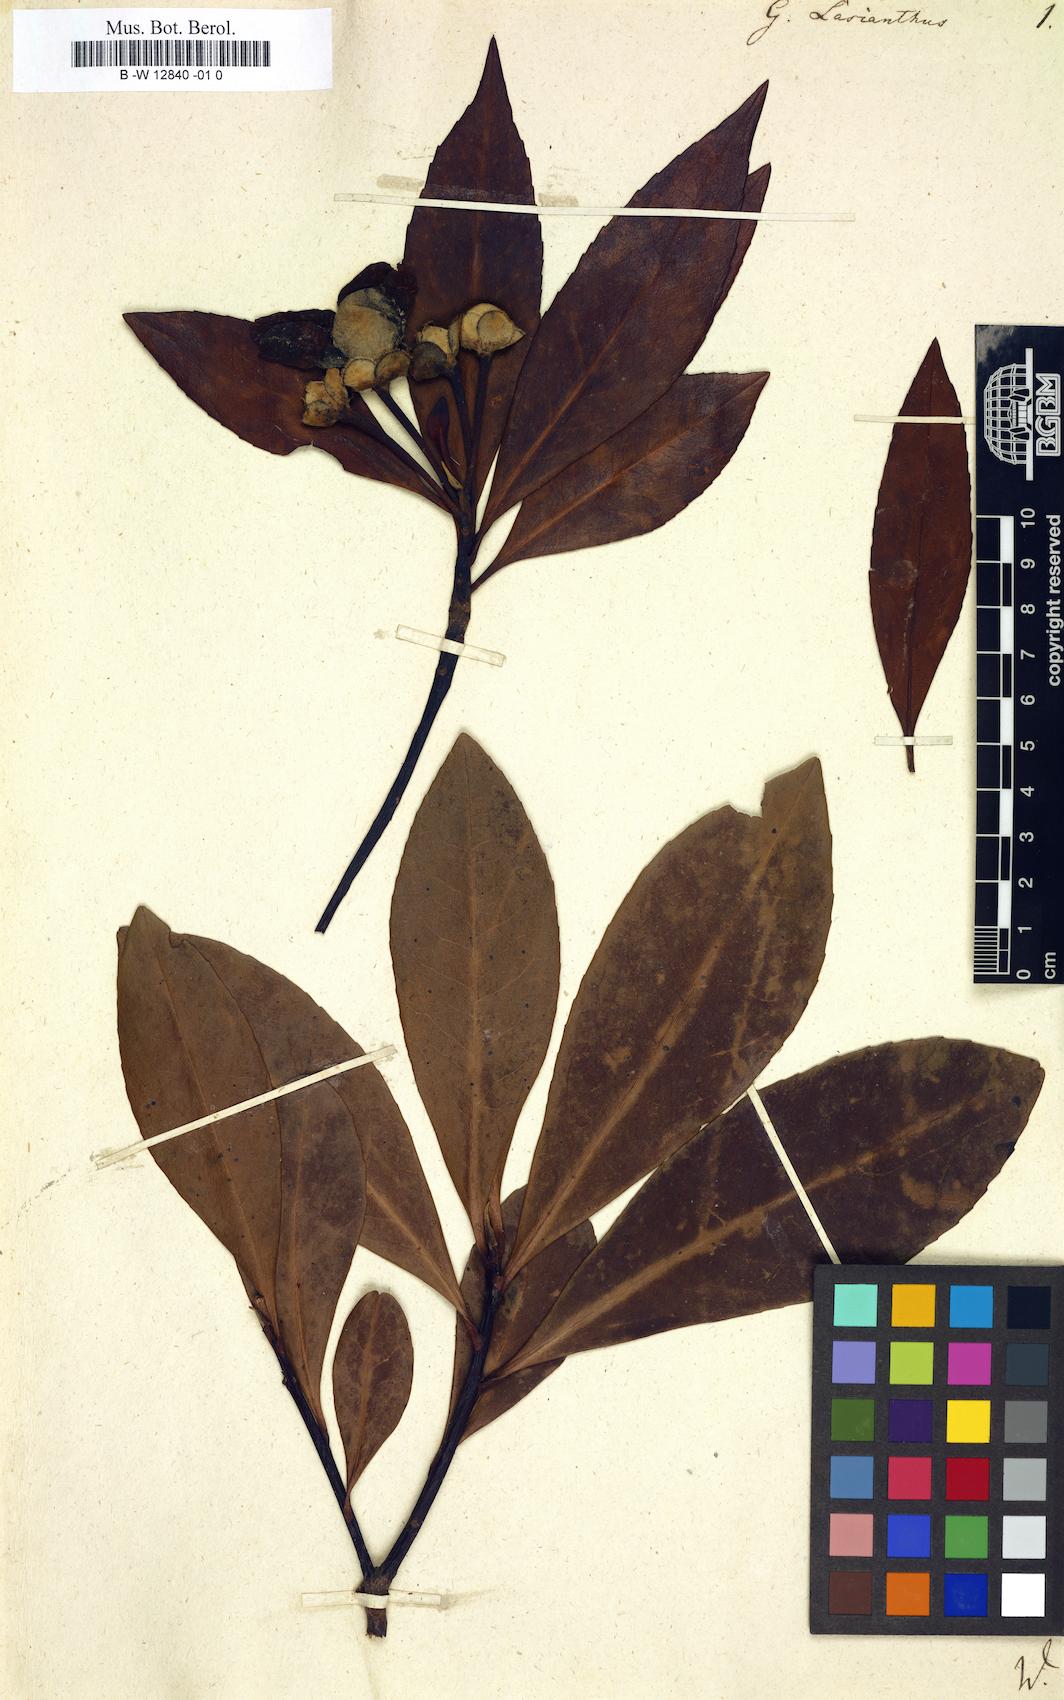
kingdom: Plantae
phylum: Tracheophyta
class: Magnoliopsida
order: Ericales
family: Theaceae
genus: Gordonia
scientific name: Gordonia lasianthus
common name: Loblolly bay
